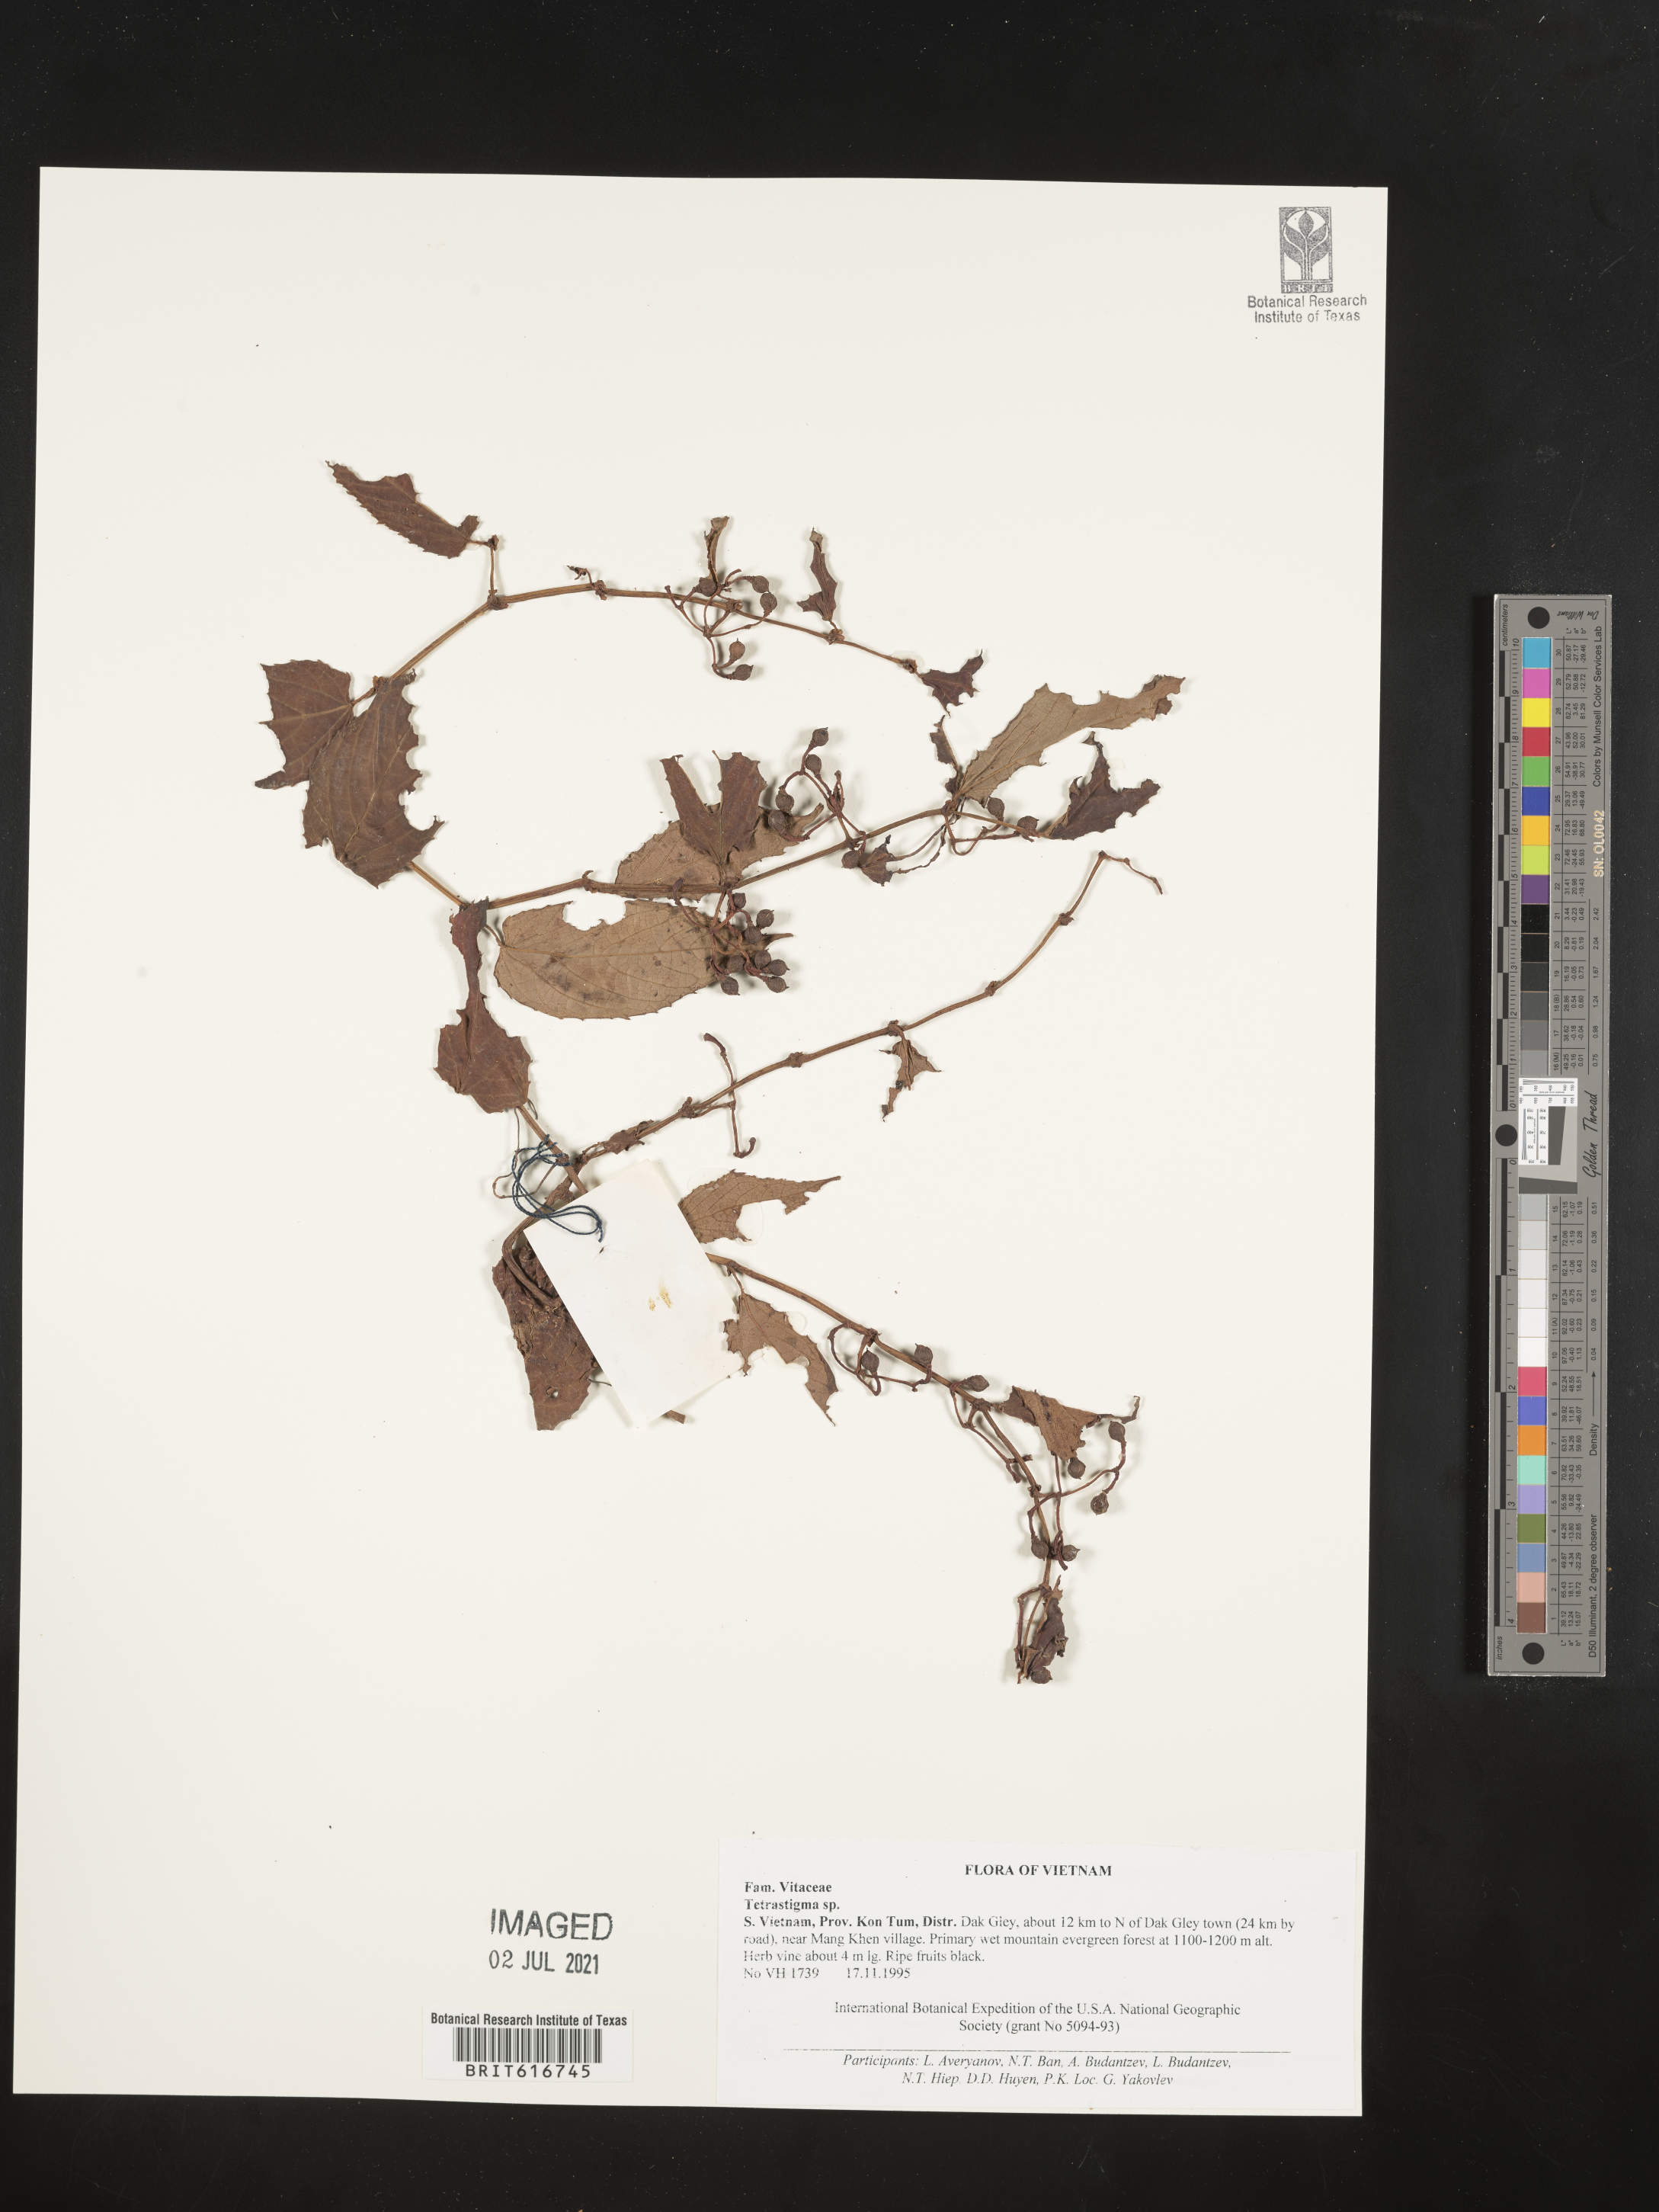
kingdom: Plantae
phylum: Tracheophyta
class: Magnoliopsida
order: Vitales
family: Vitaceae
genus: Tetrastigma
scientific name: Tetrastigma
